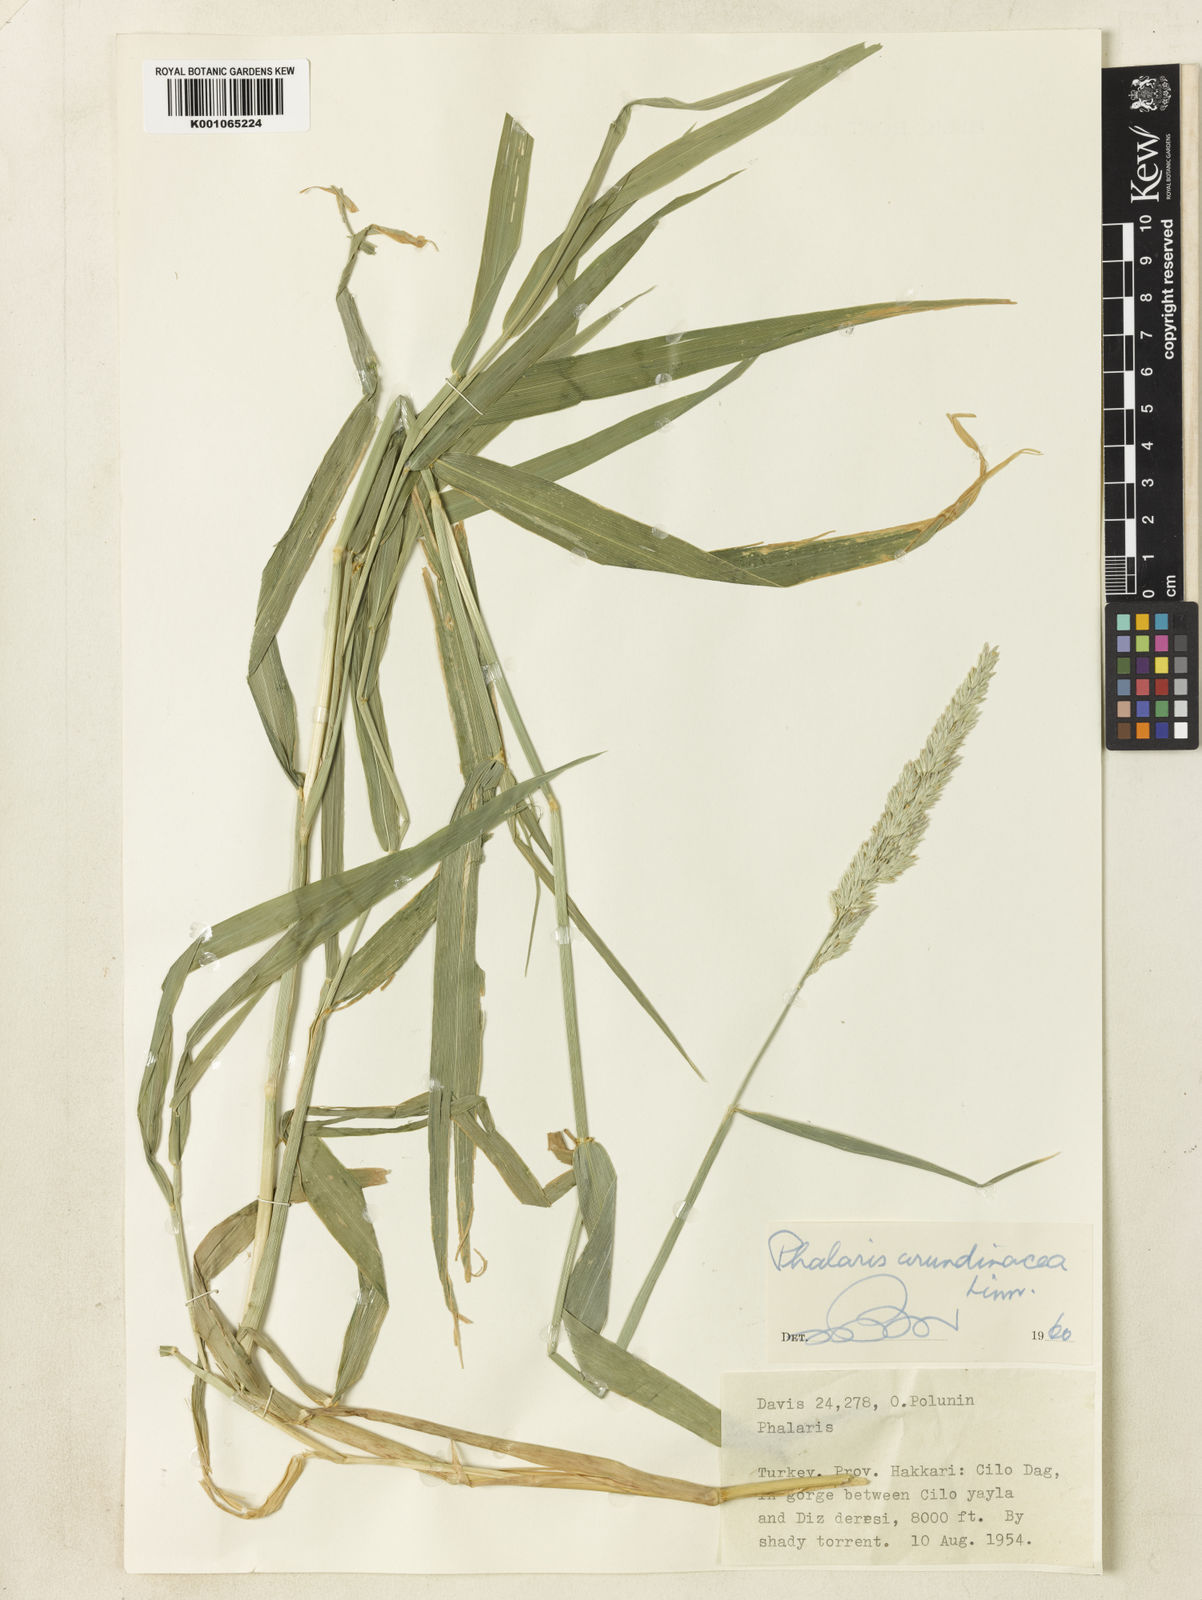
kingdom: Plantae
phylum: Tracheophyta
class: Liliopsida
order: Poales
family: Poaceae
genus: Phalaris
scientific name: Phalaris arundinacea
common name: Reed canary-grass
